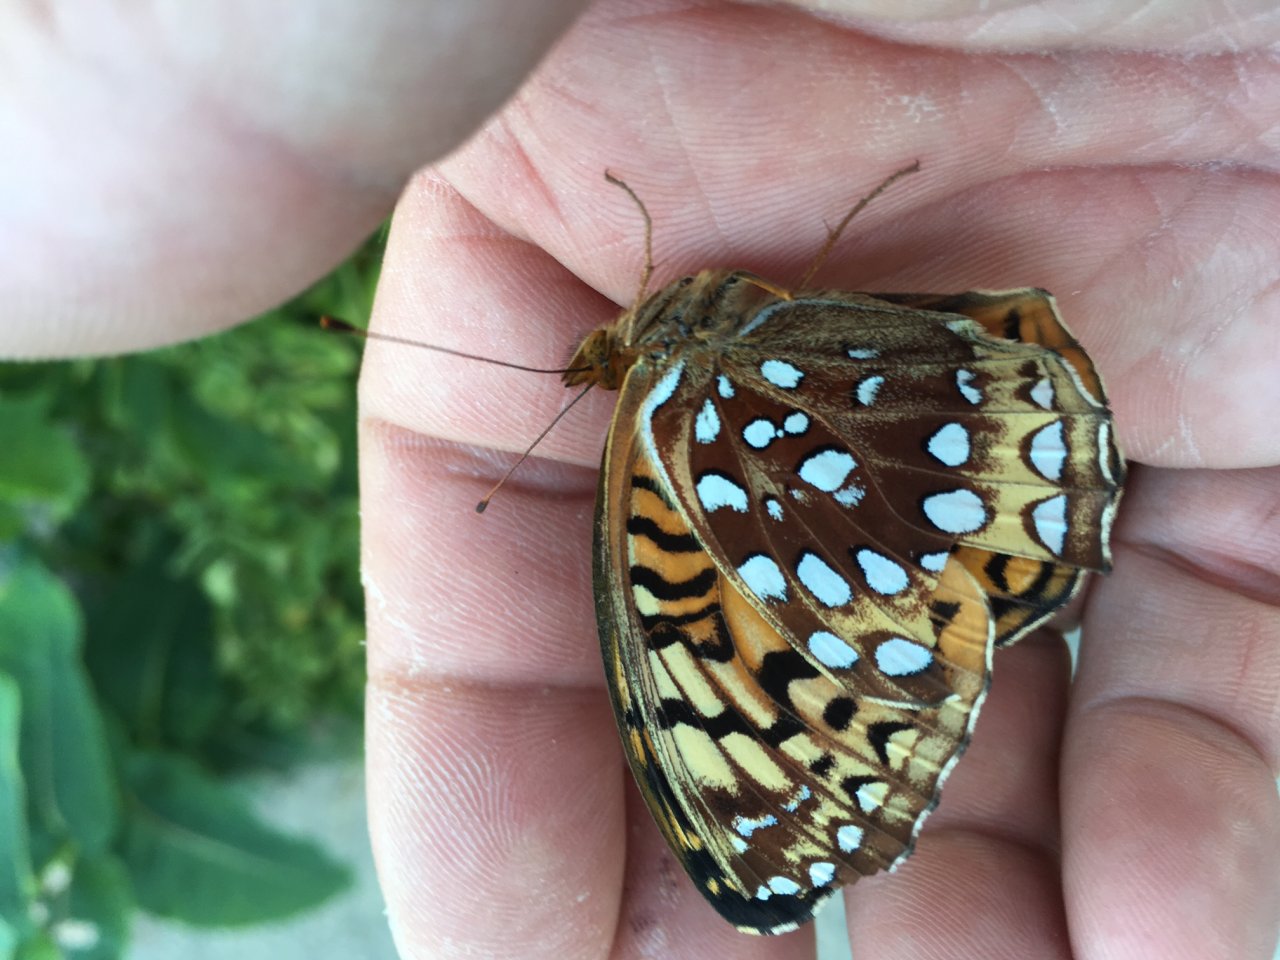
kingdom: Animalia
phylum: Arthropoda
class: Insecta
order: Lepidoptera
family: Nymphalidae
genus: Speyeria
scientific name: Speyeria aphrodite
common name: Aphrodite Fritillary
